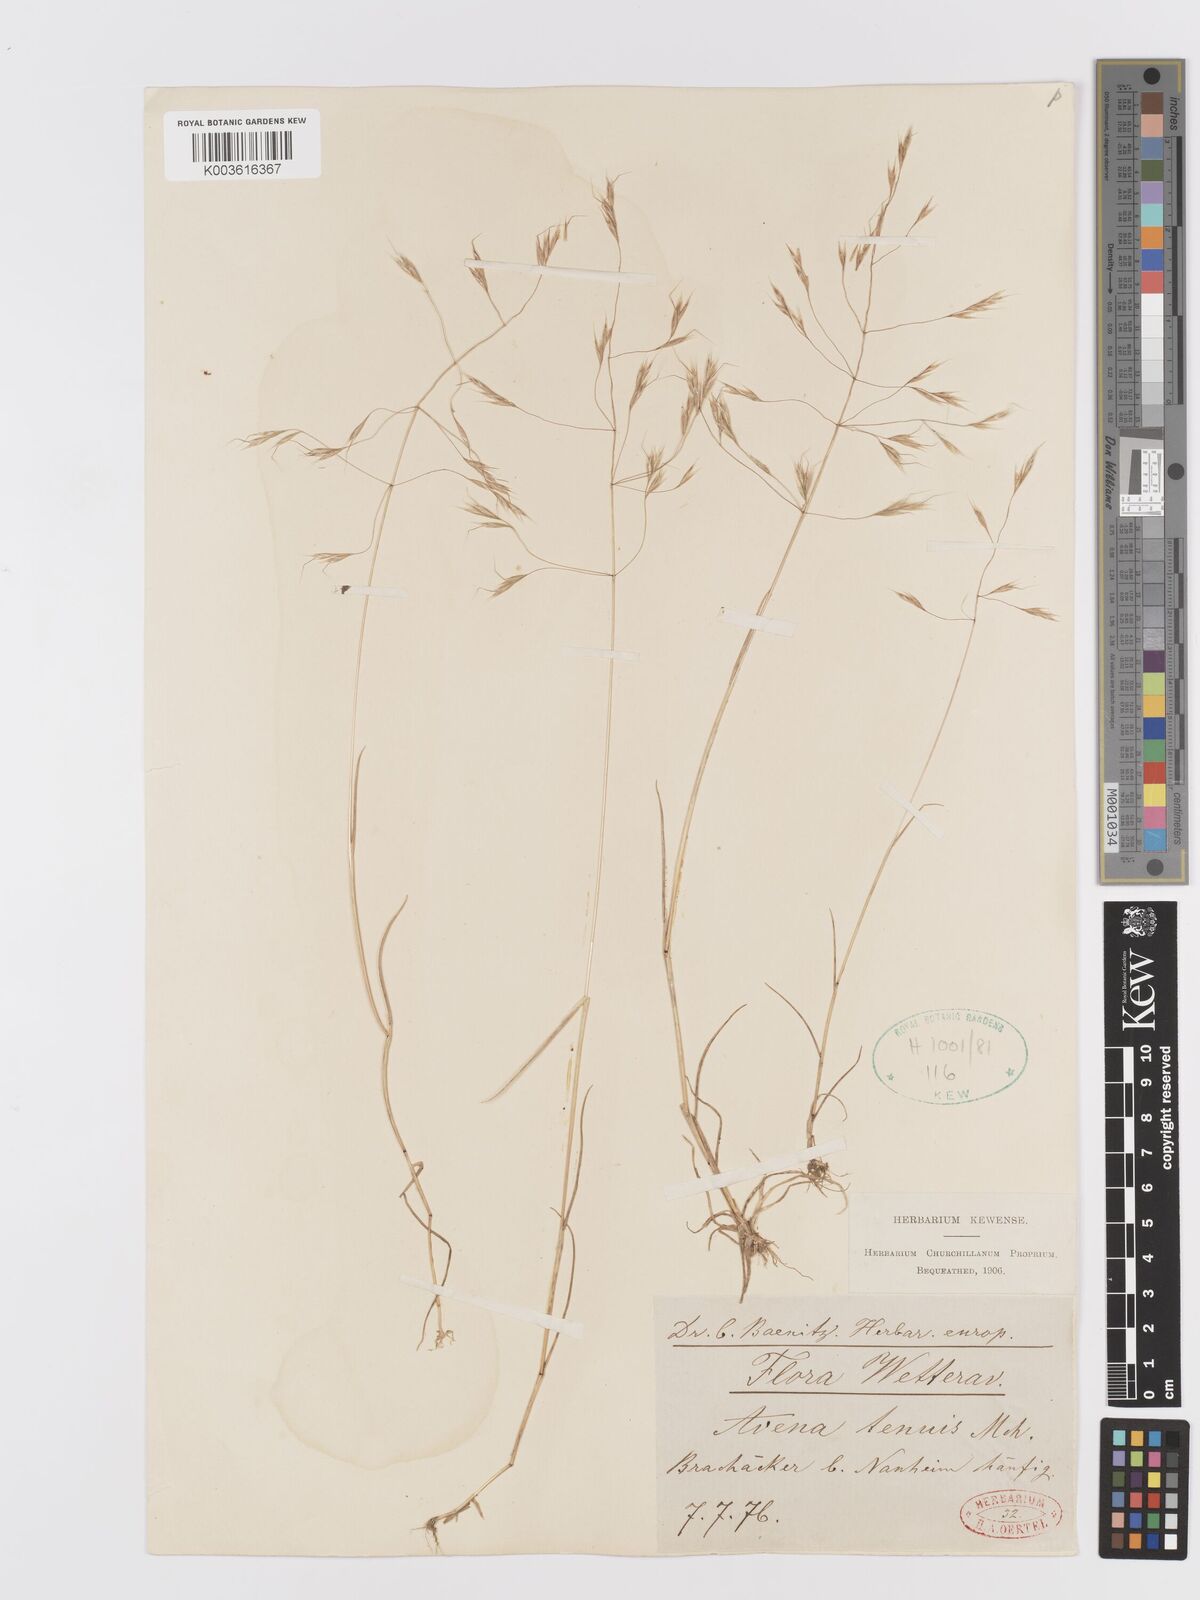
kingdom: Plantae
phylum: Tracheophyta
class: Liliopsida
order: Poales
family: Poaceae
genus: Ventenata
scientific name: Ventenata dubia
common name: North africa grass
